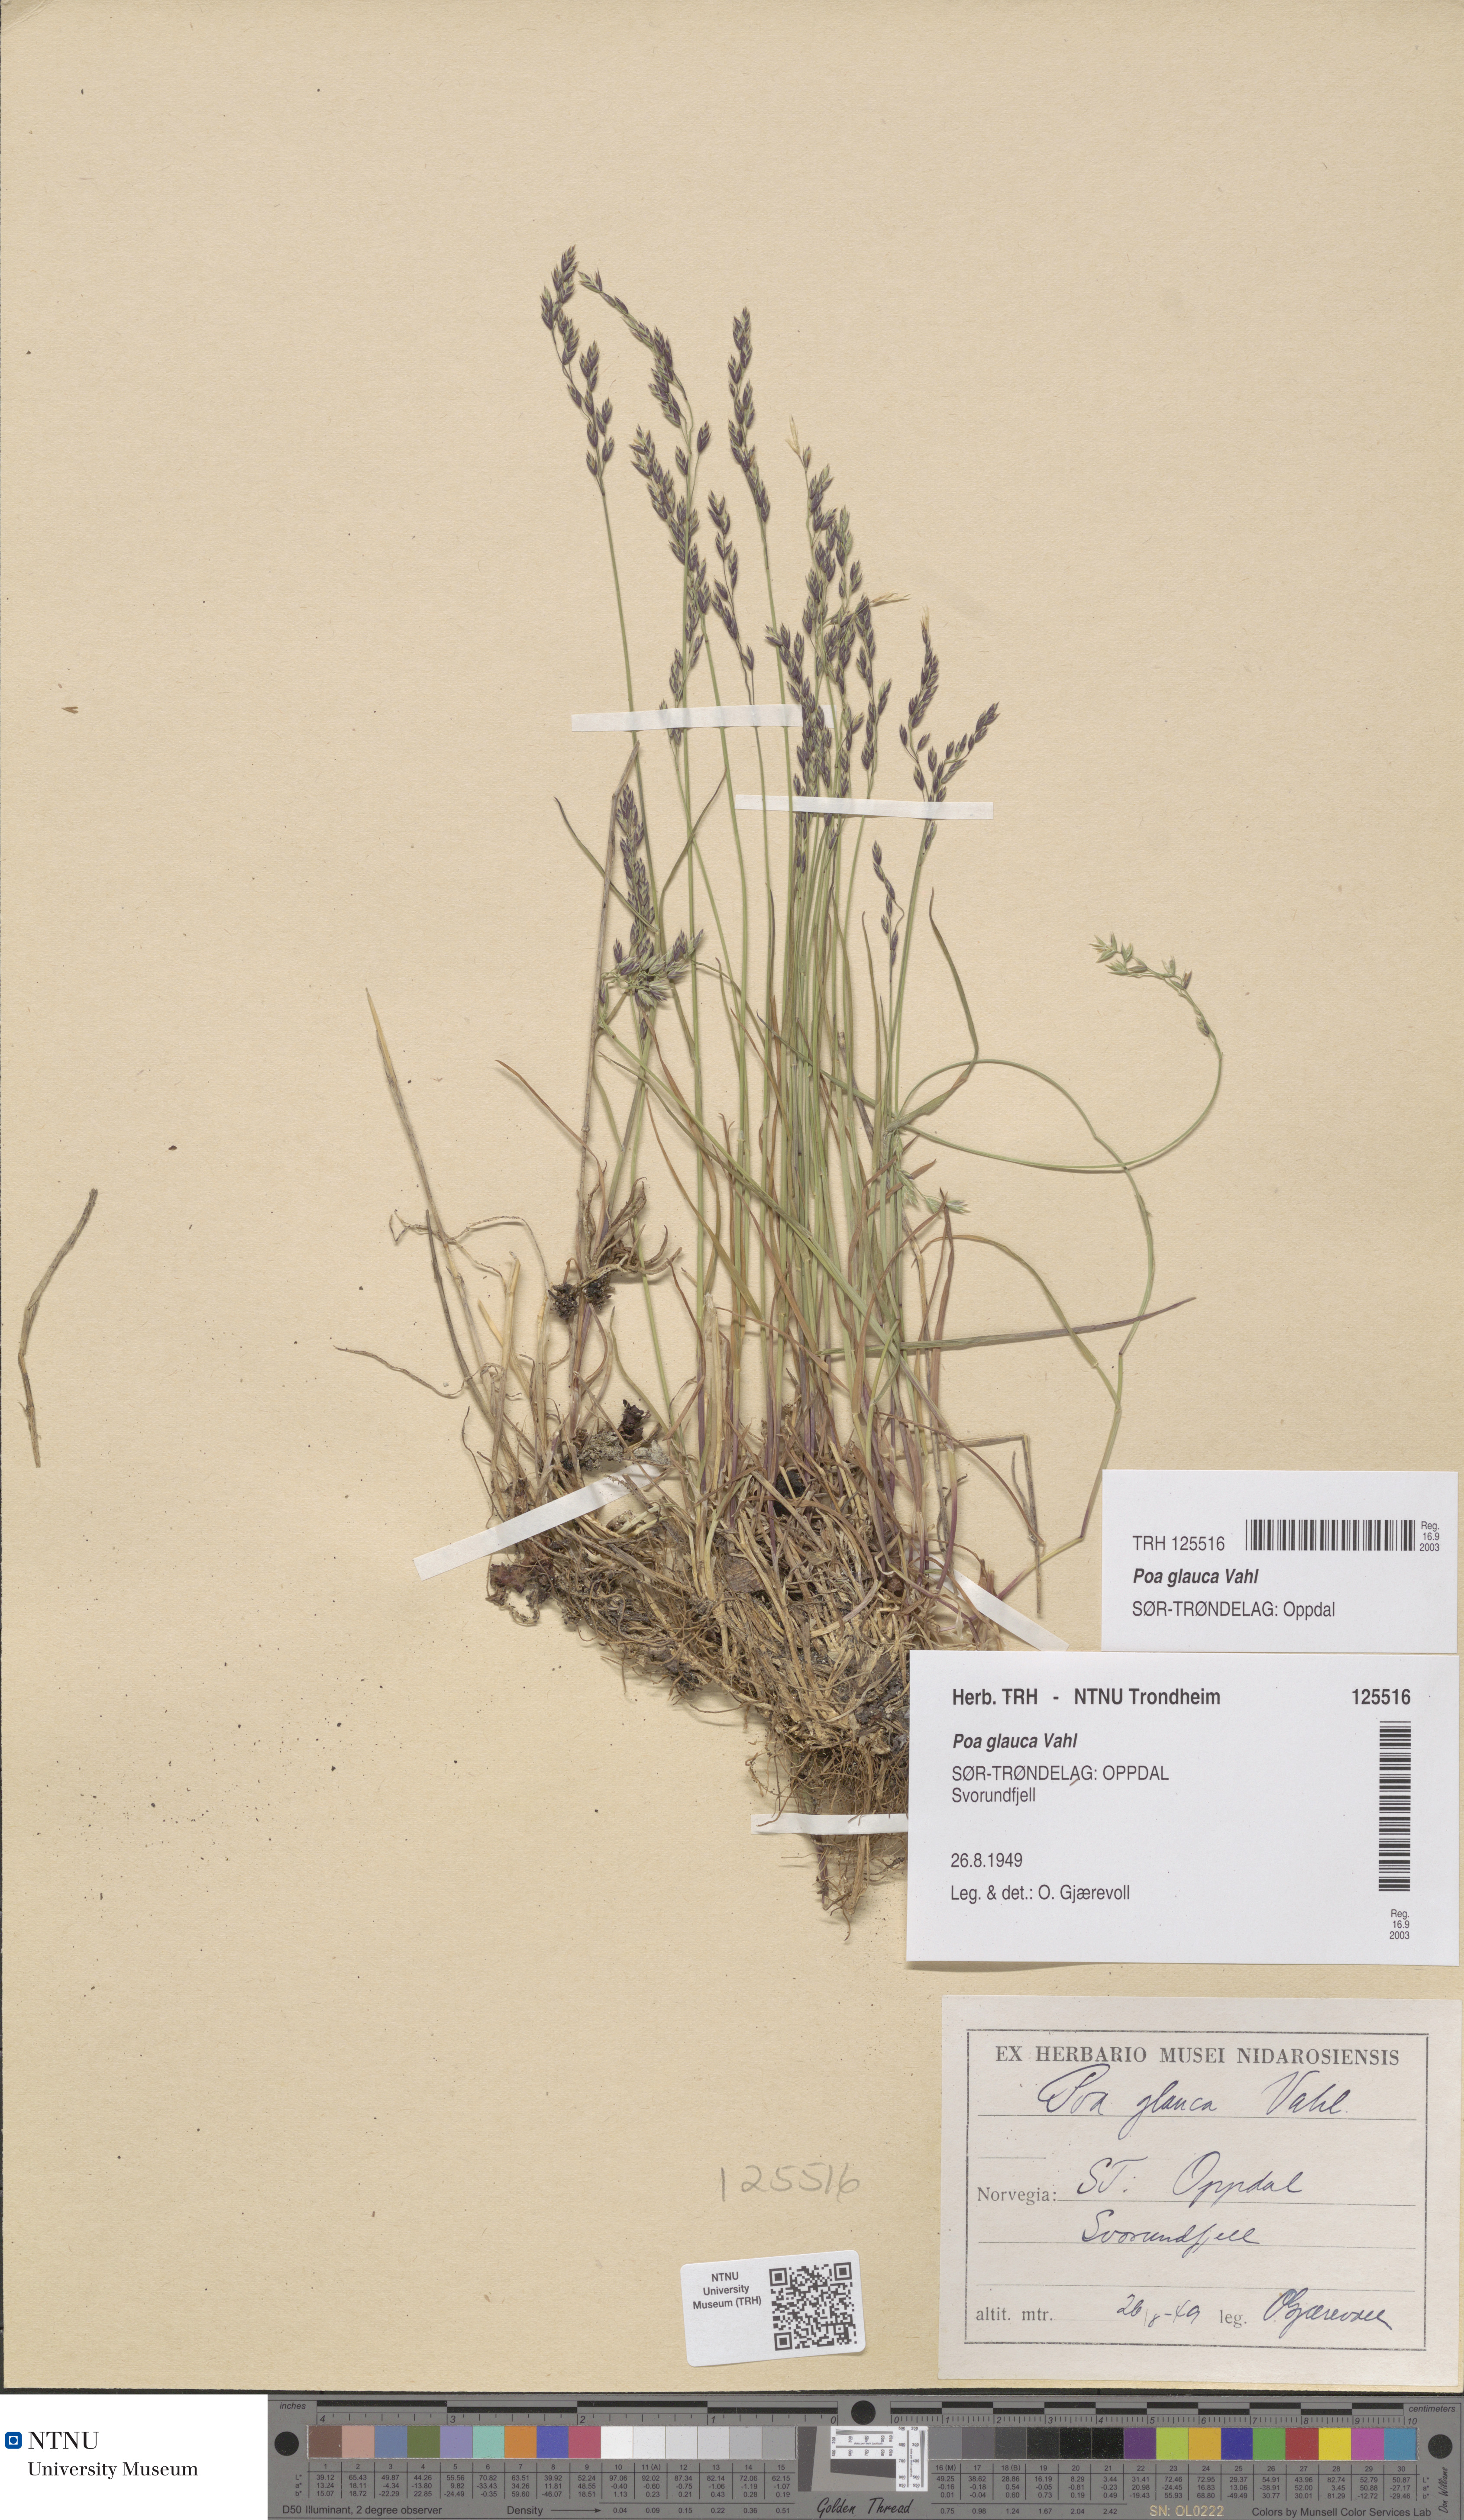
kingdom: Plantae
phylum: Tracheophyta
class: Liliopsida
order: Poales
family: Poaceae
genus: Poa
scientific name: Poa glauca
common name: Glaucous bluegrass
